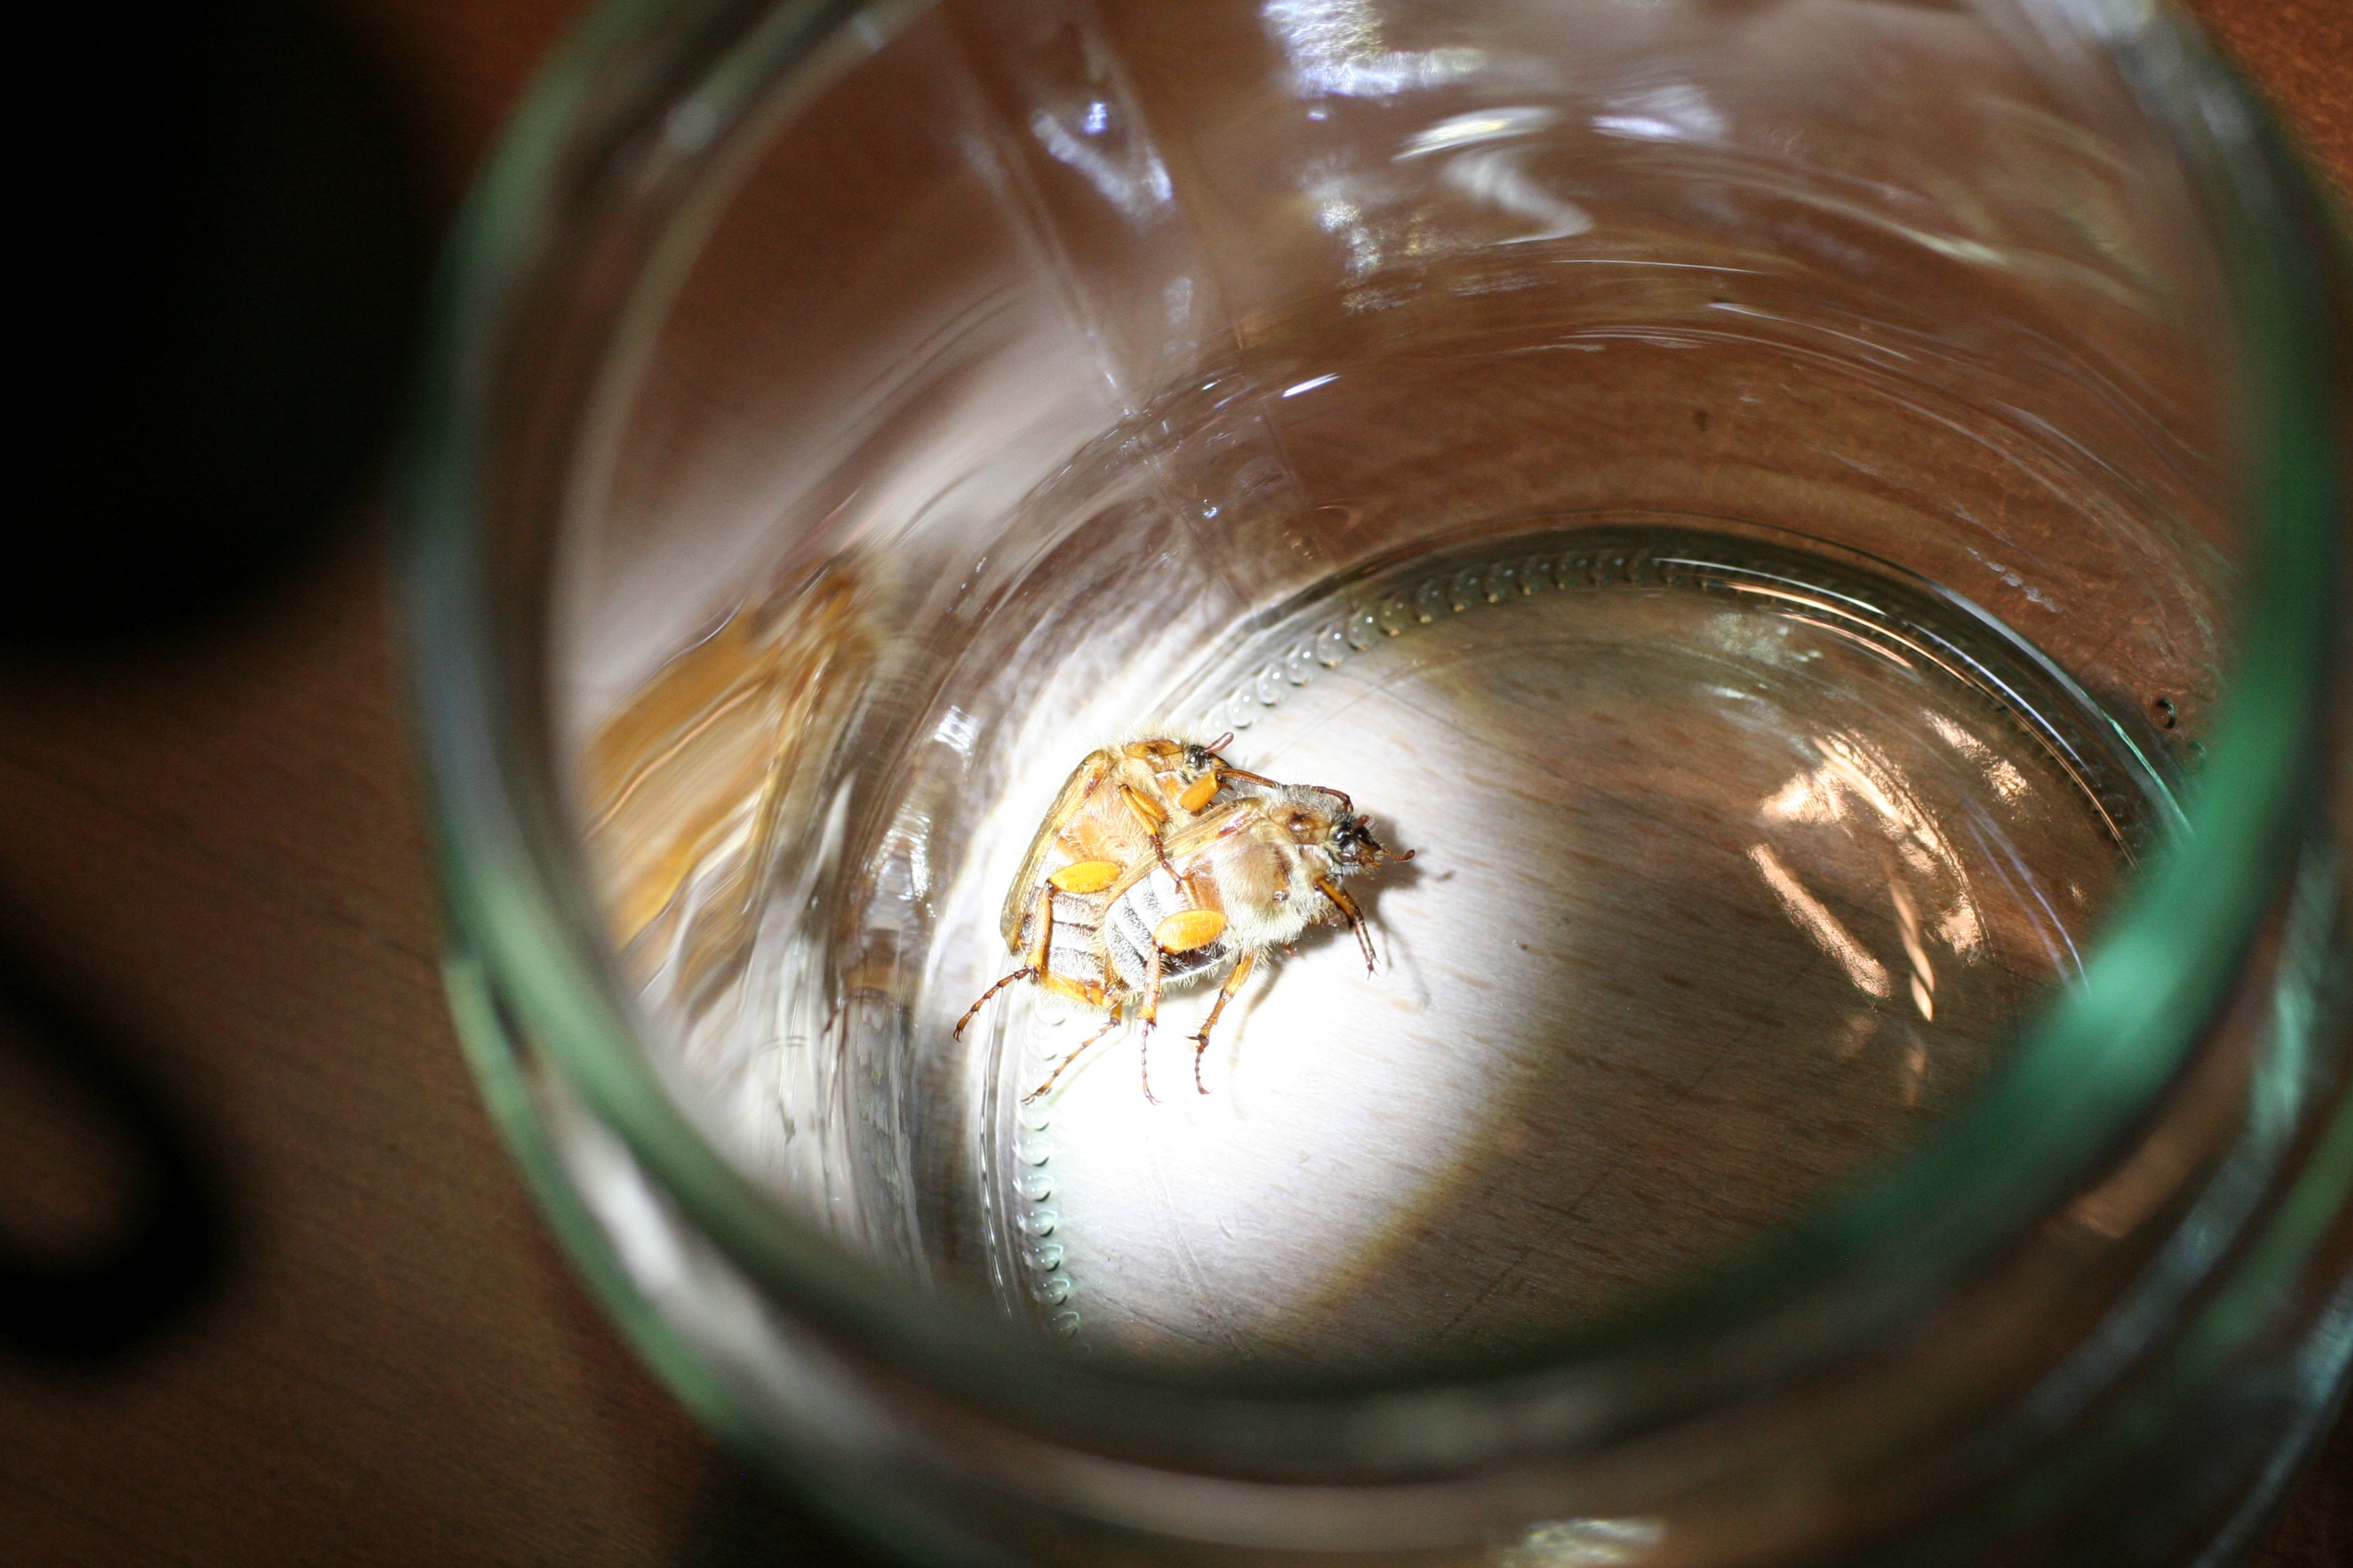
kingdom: Animalia
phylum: Arthropoda
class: Insecta
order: Coleoptera
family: Scarabaeidae
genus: Amphimallon
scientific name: Amphimallon solstitiale
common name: Sankthansoldenborre
